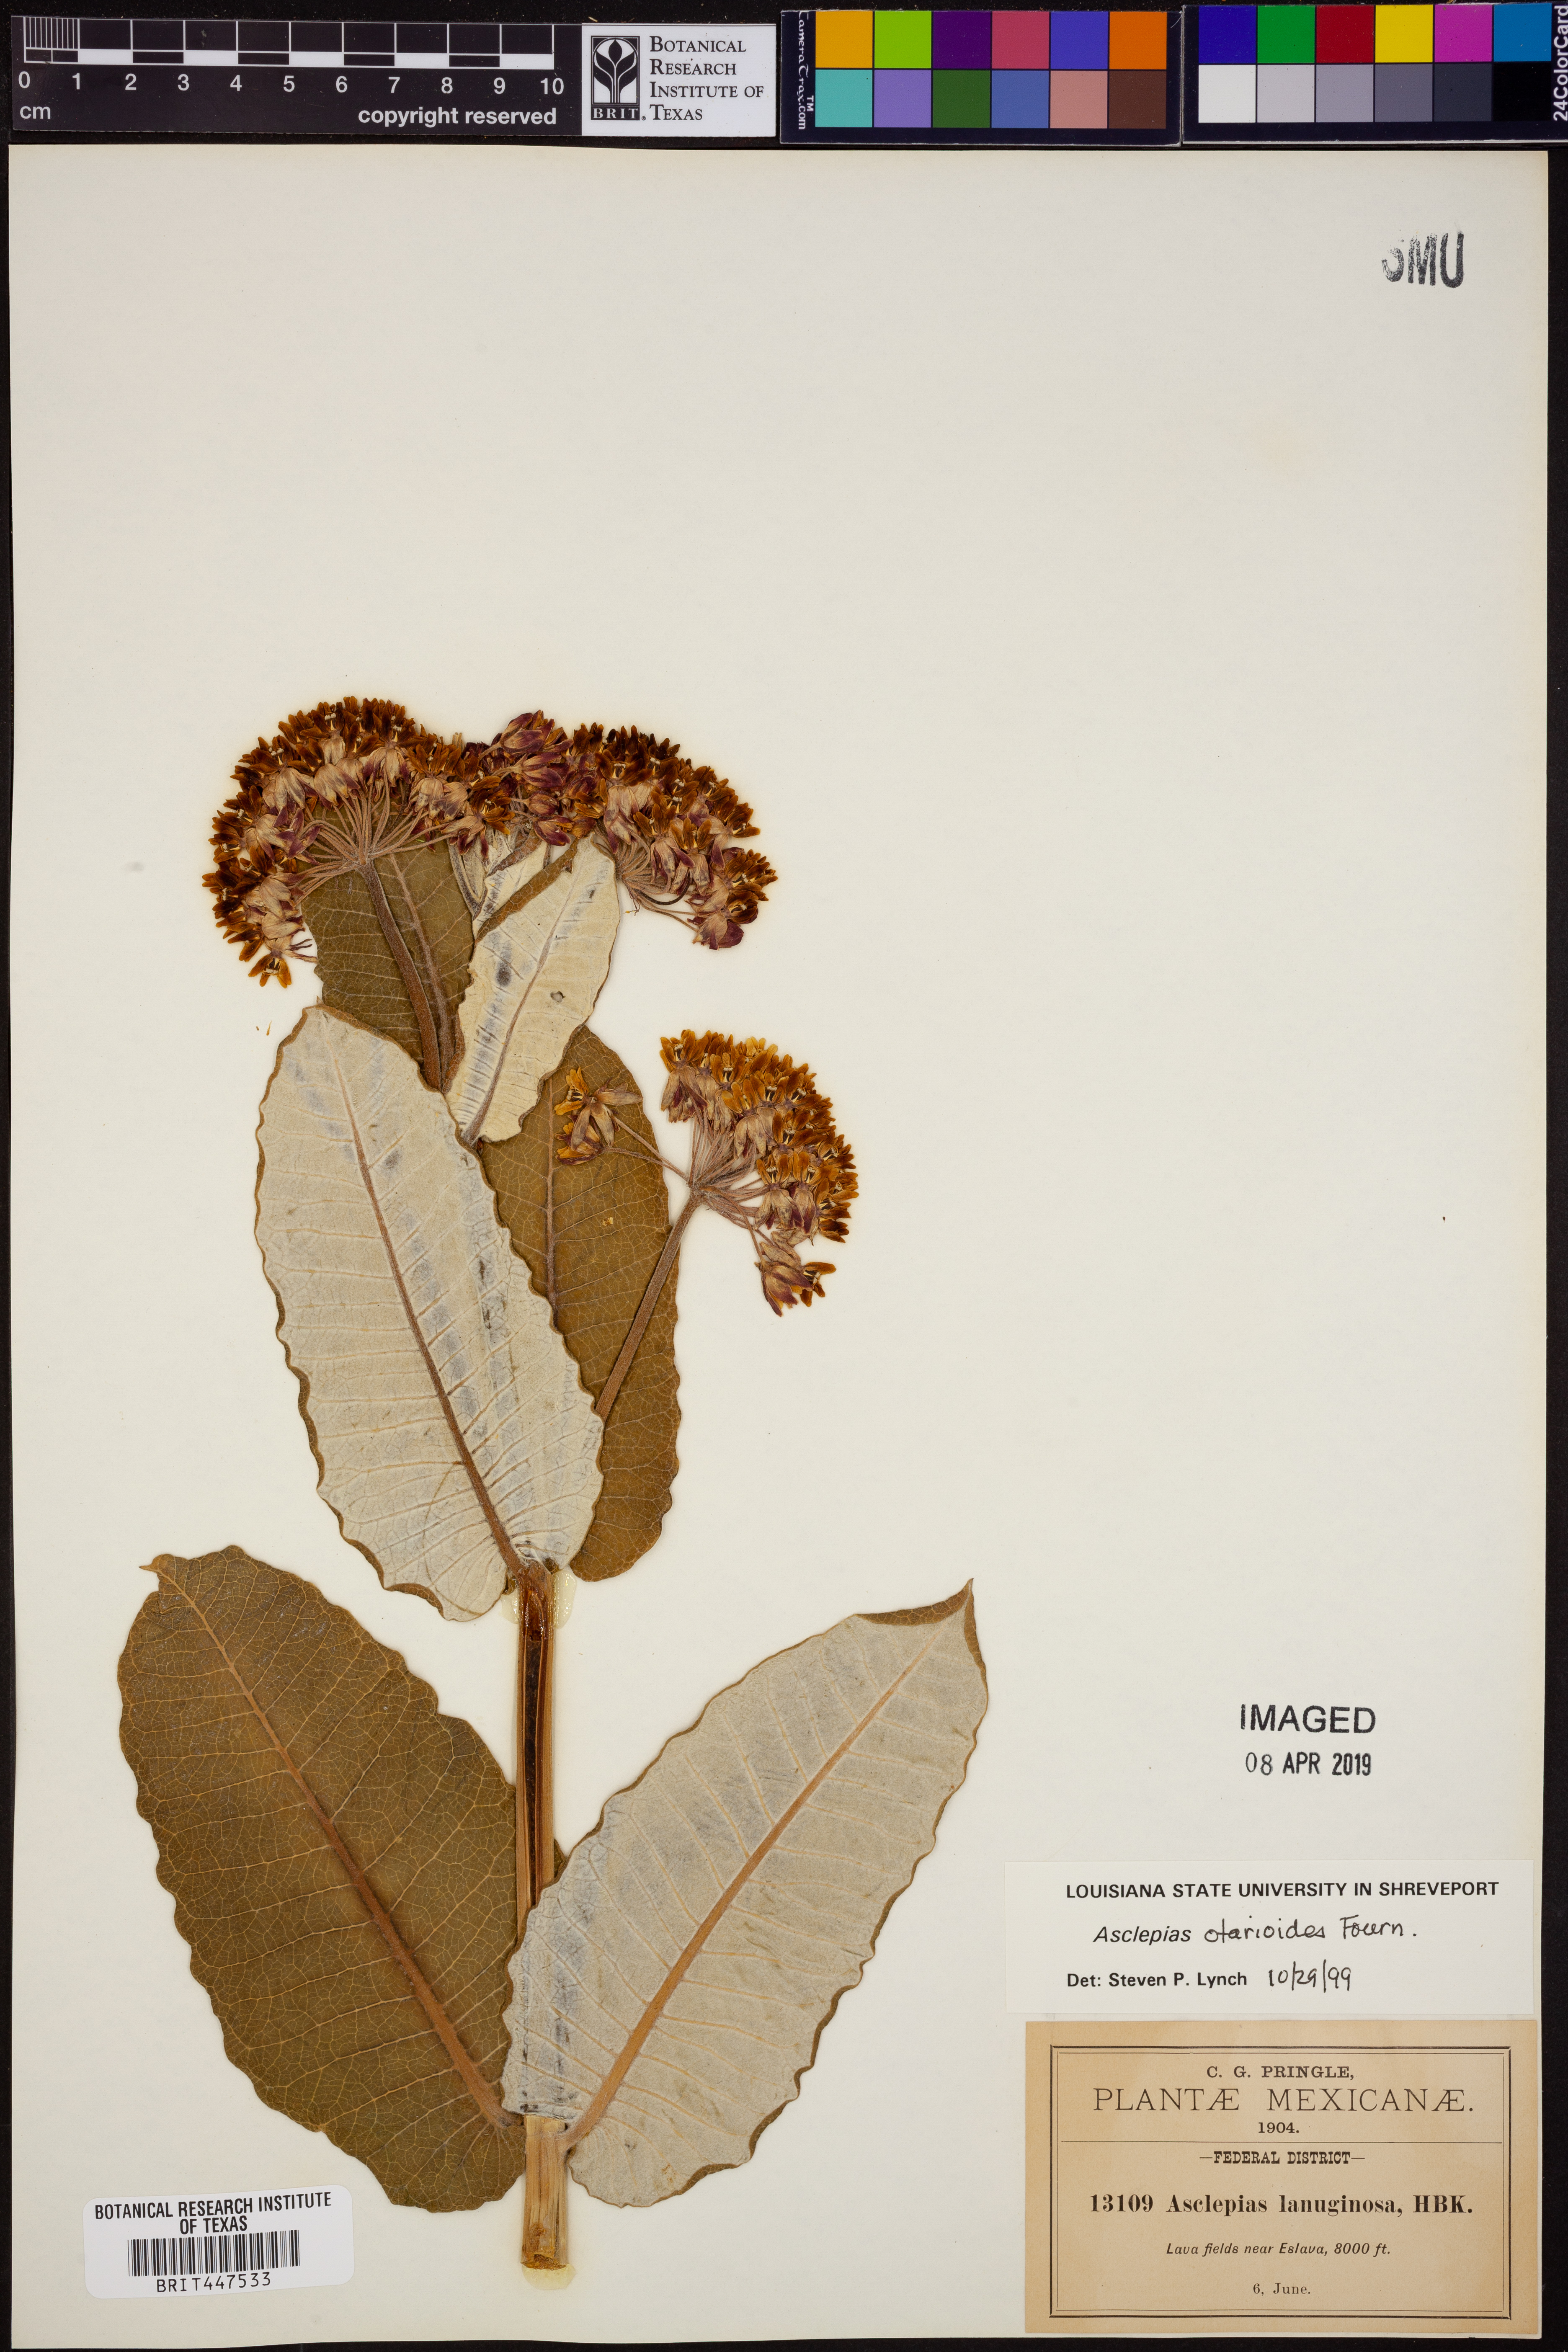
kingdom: Plantae
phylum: Tracheophyta
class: Magnoliopsida
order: Gentianales
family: Apocynaceae
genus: Asclepias
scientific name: Asclepias otarioides
